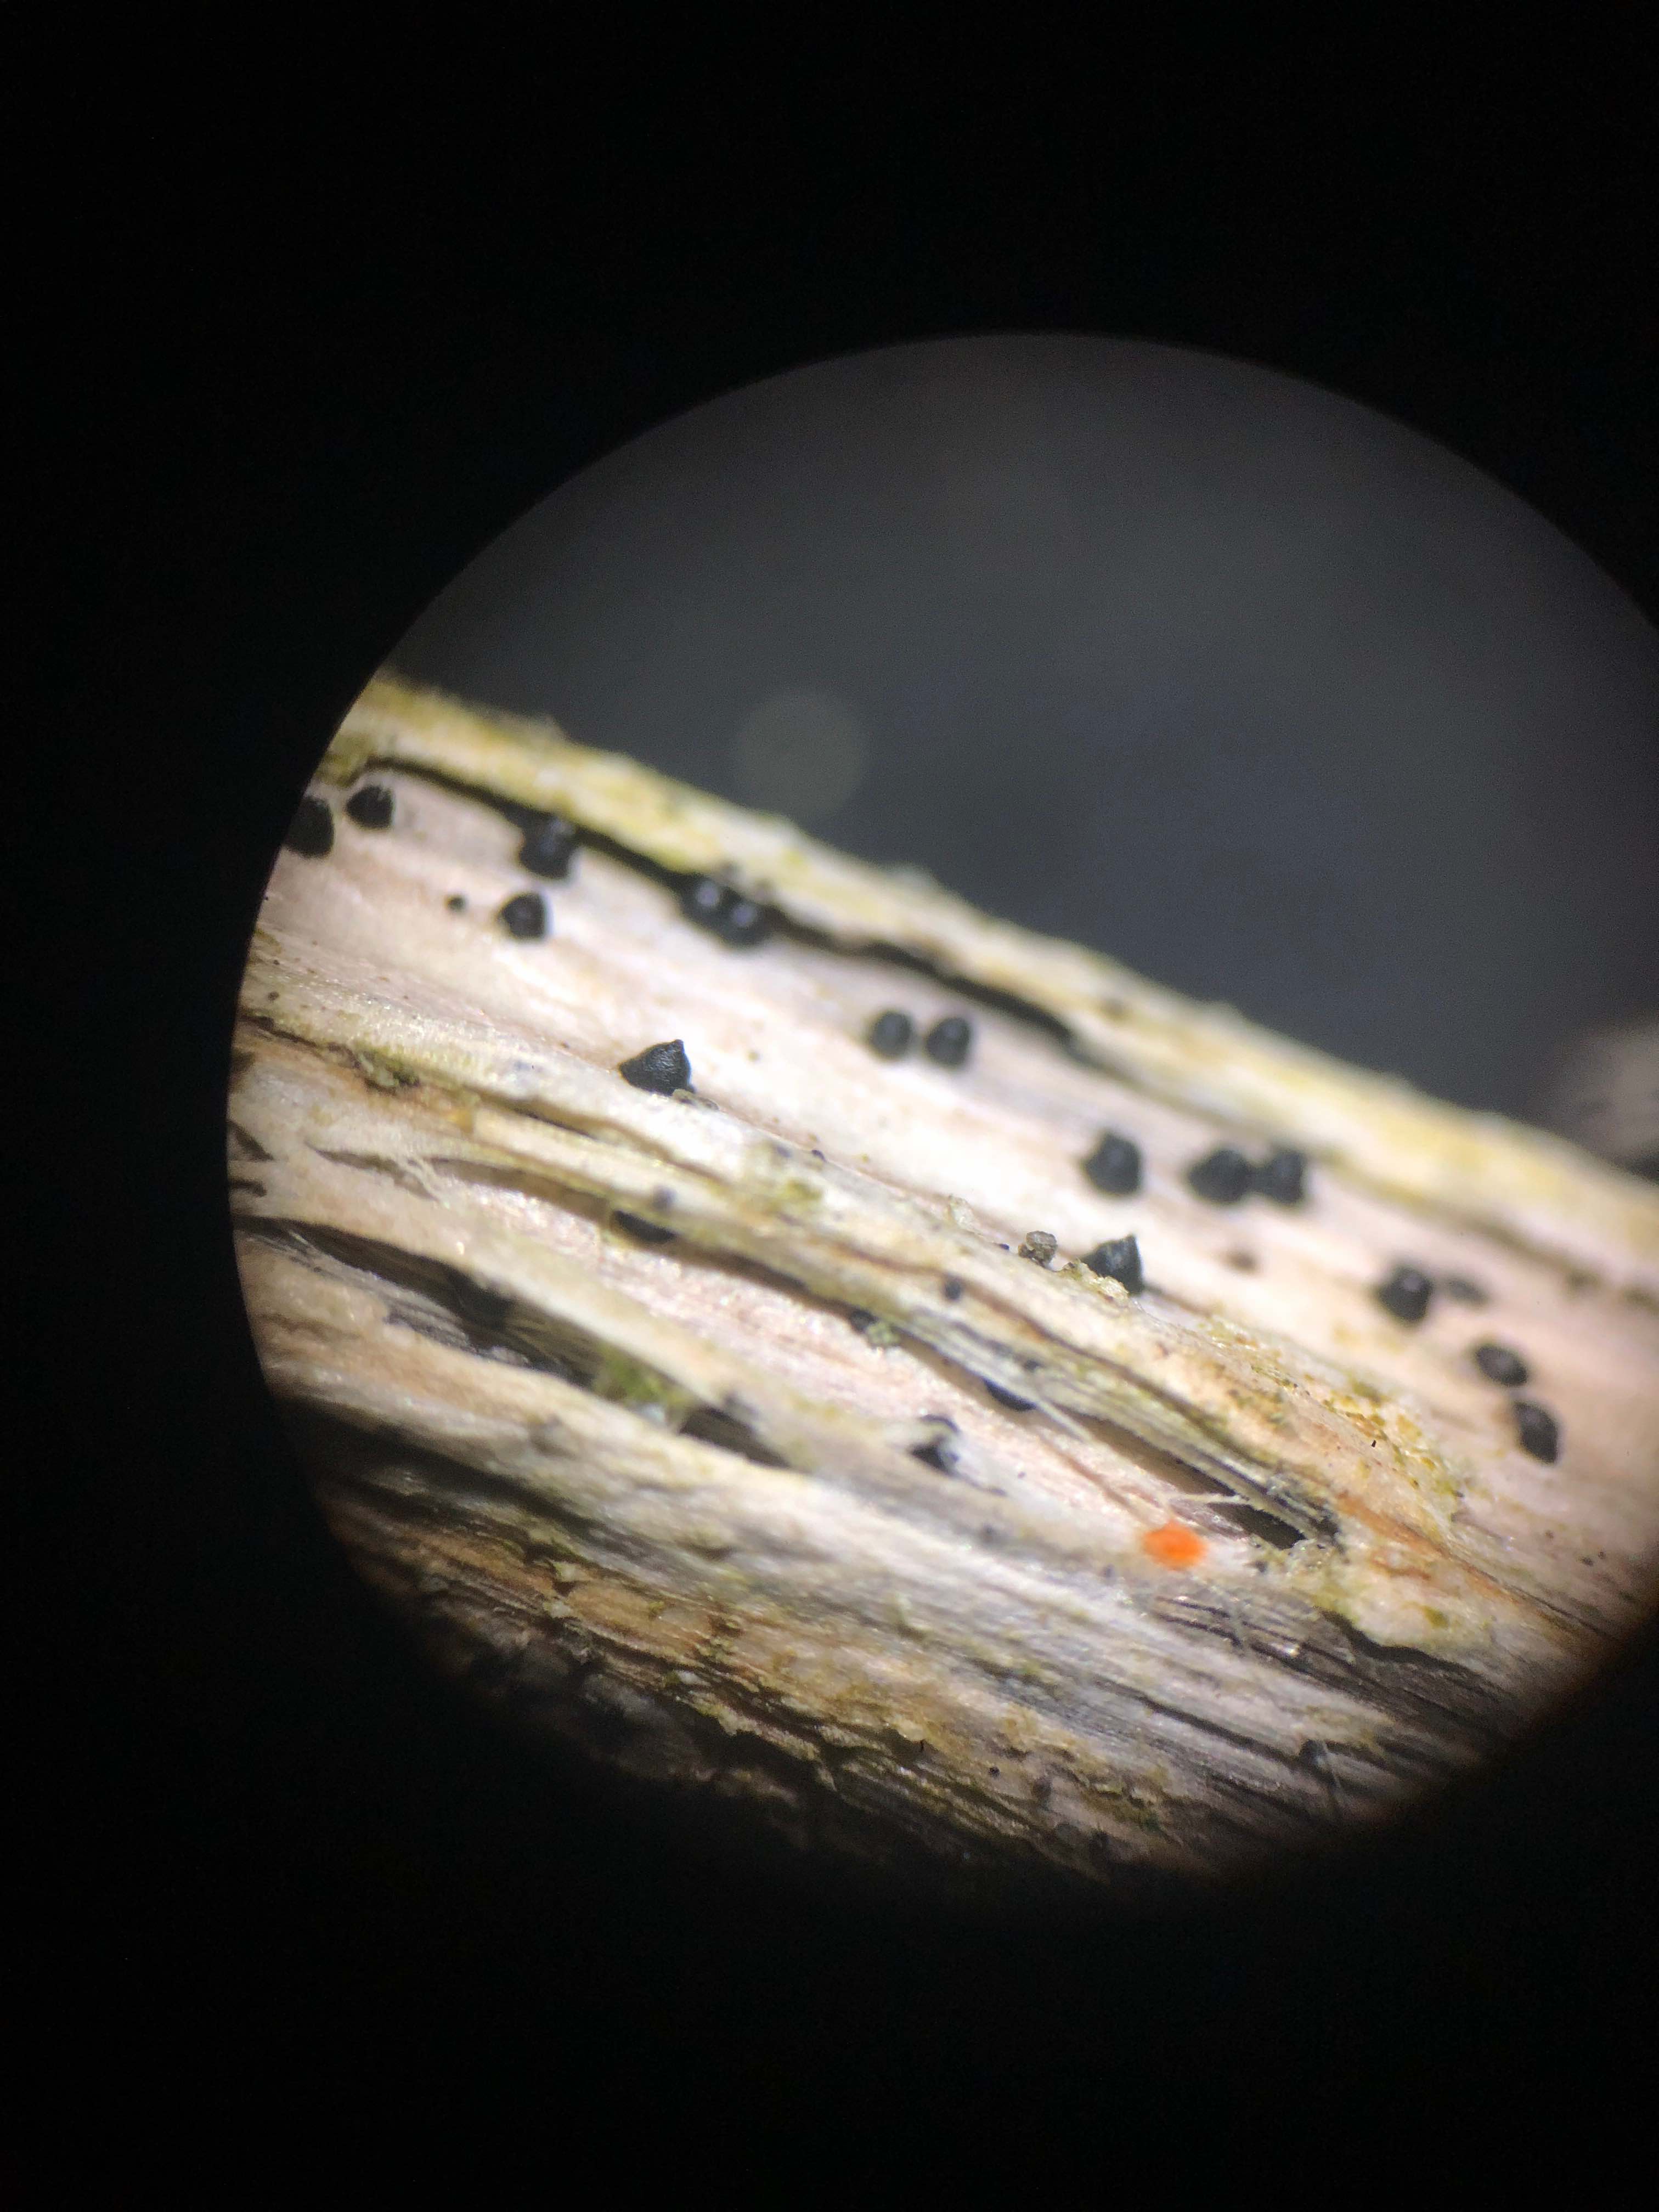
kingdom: Fungi
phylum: Ascomycota
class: Dothideomycetes
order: Pleosporales
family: Leptosphaeriaceae
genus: Leptosphaeria
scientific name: Leptosphaeria acuta
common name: spids kulkegle
